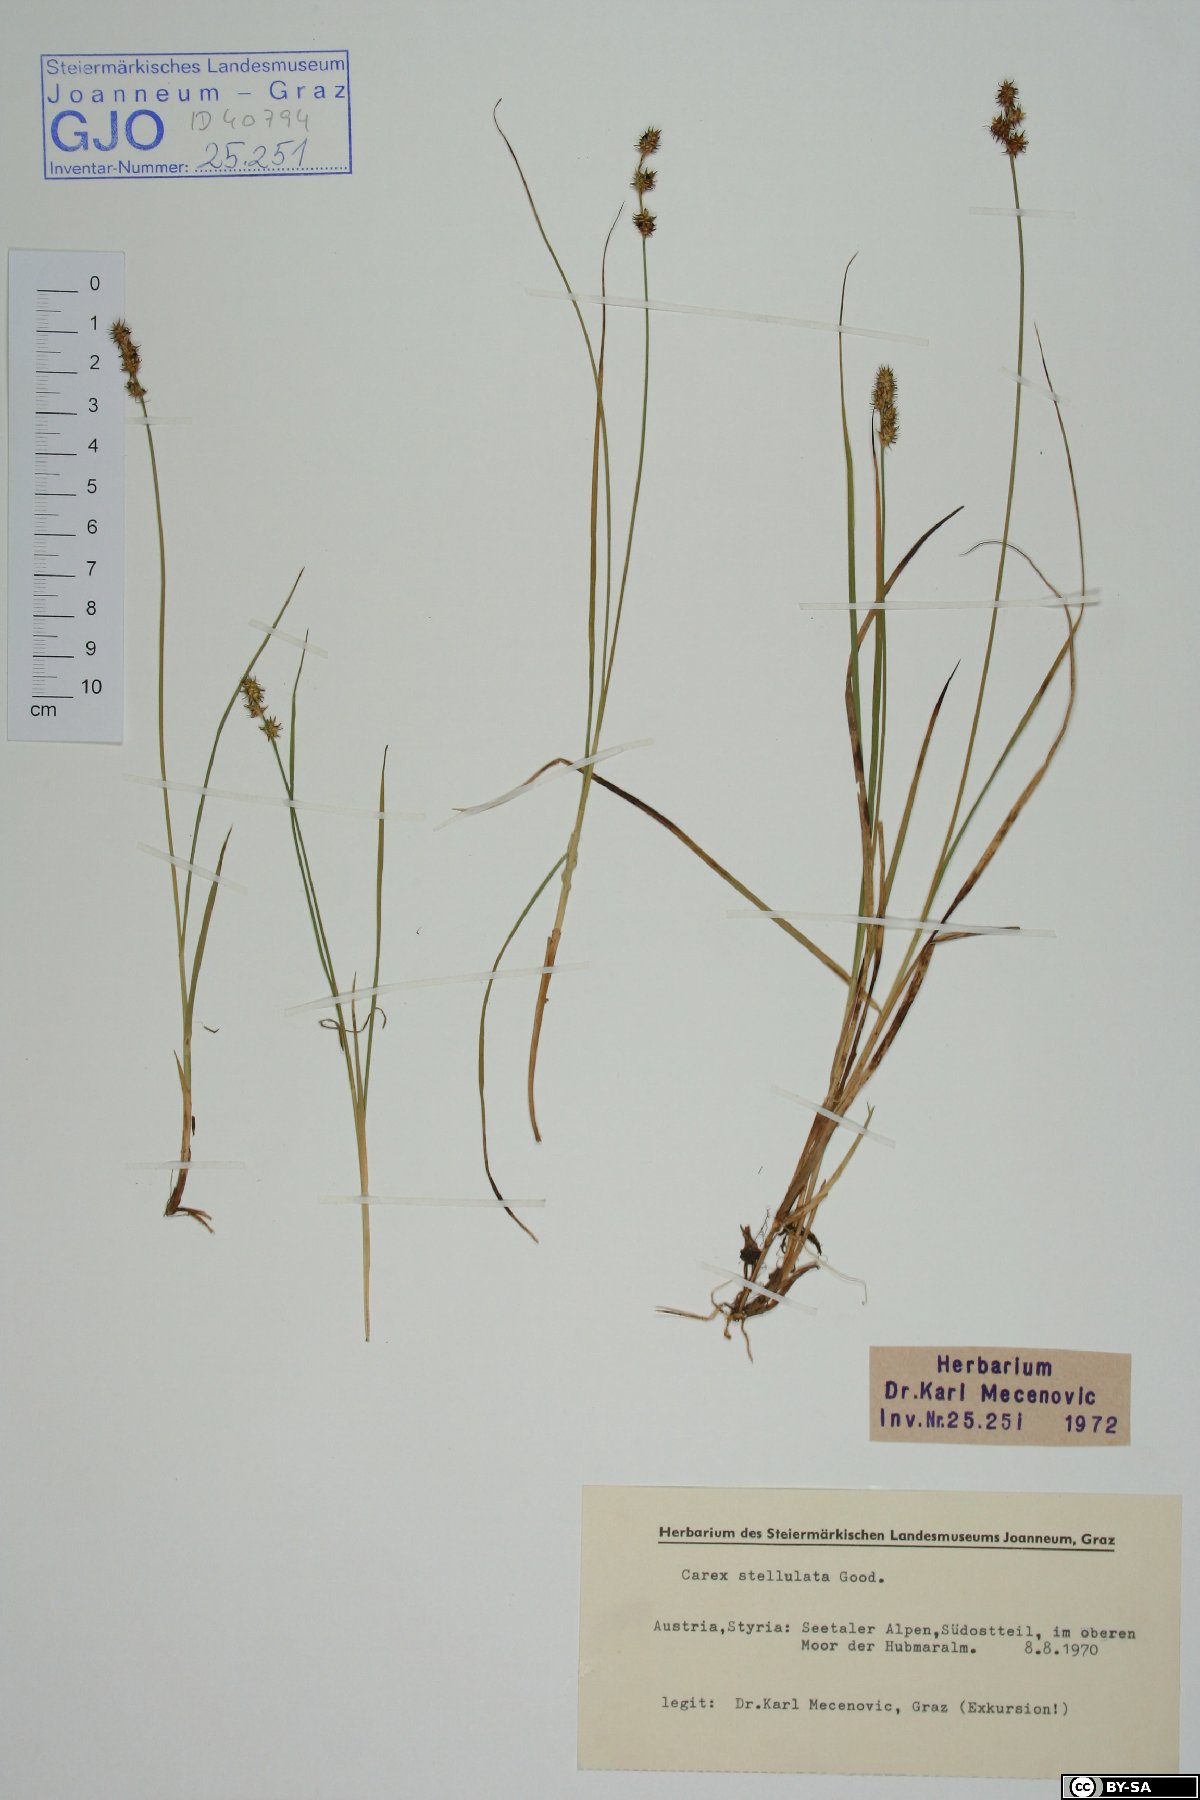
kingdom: Plantae
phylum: Tracheophyta
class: Liliopsida
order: Poales
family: Cyperaceae
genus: Carex
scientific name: Carex echinata
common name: Star sedge
